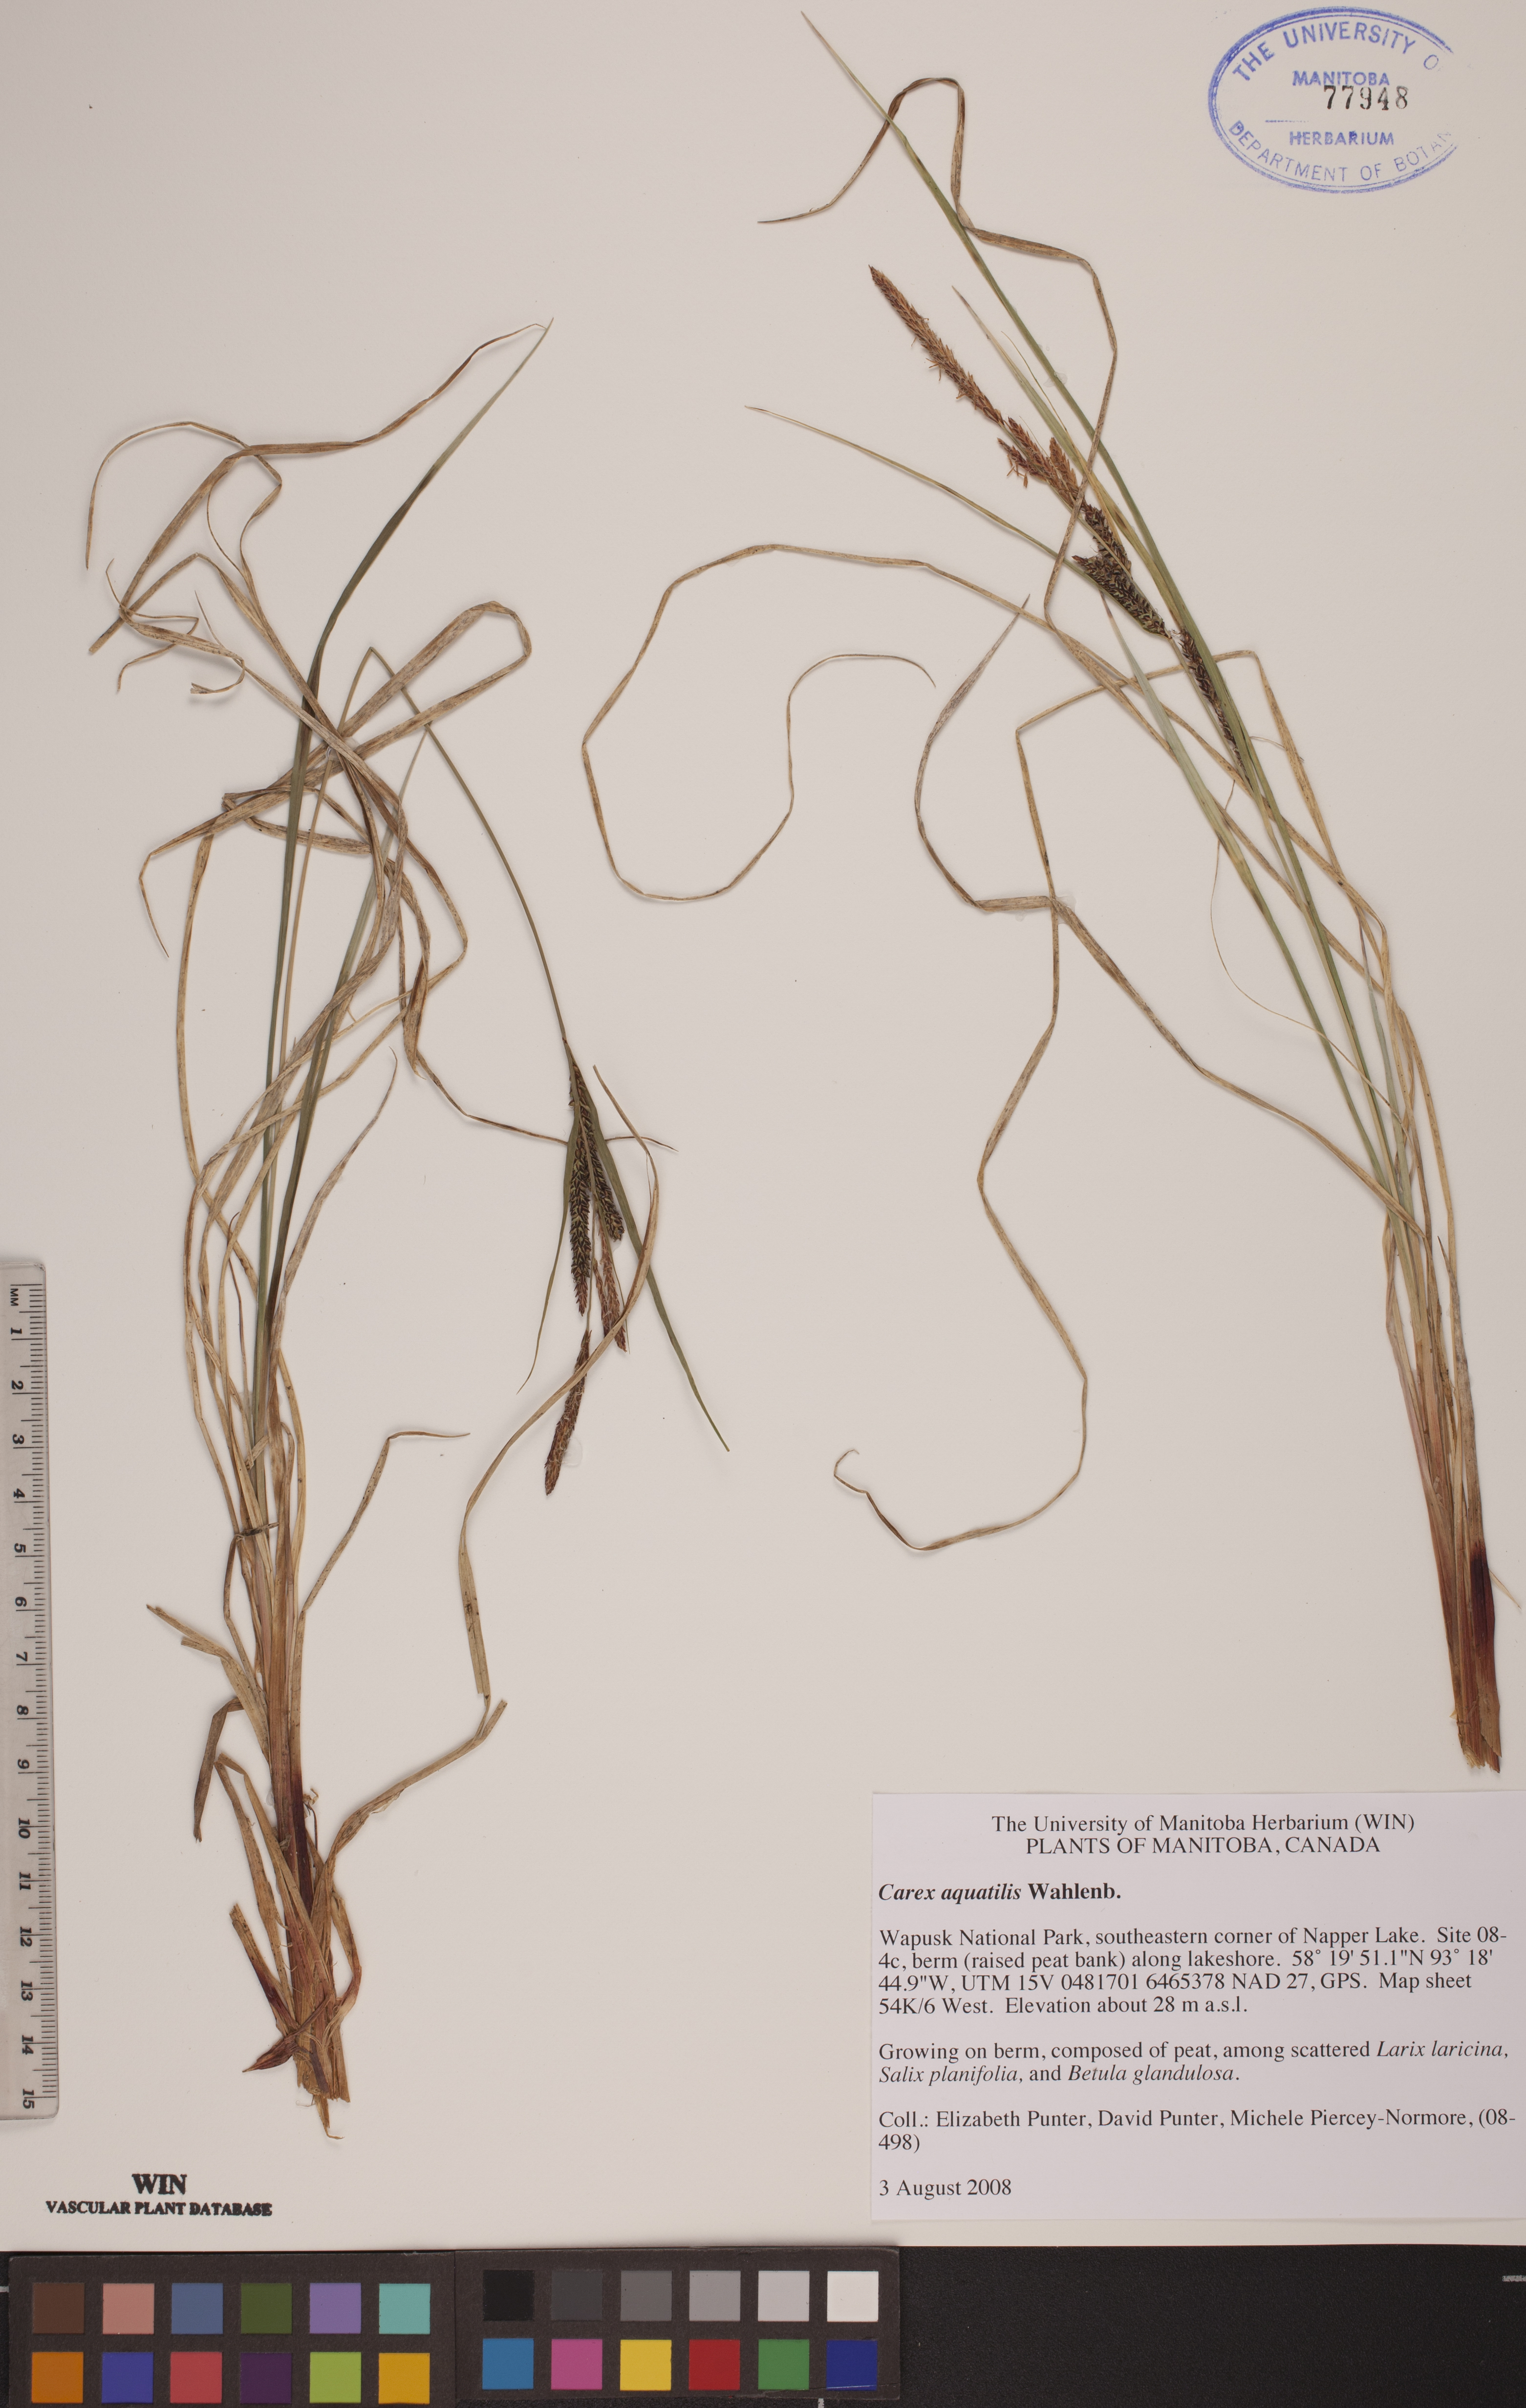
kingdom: Plantae
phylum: Tracheophyta
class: Liliopsida
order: Poales
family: Cyperaceae
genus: Carex
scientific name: Carex aquatilis
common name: Water sedge
